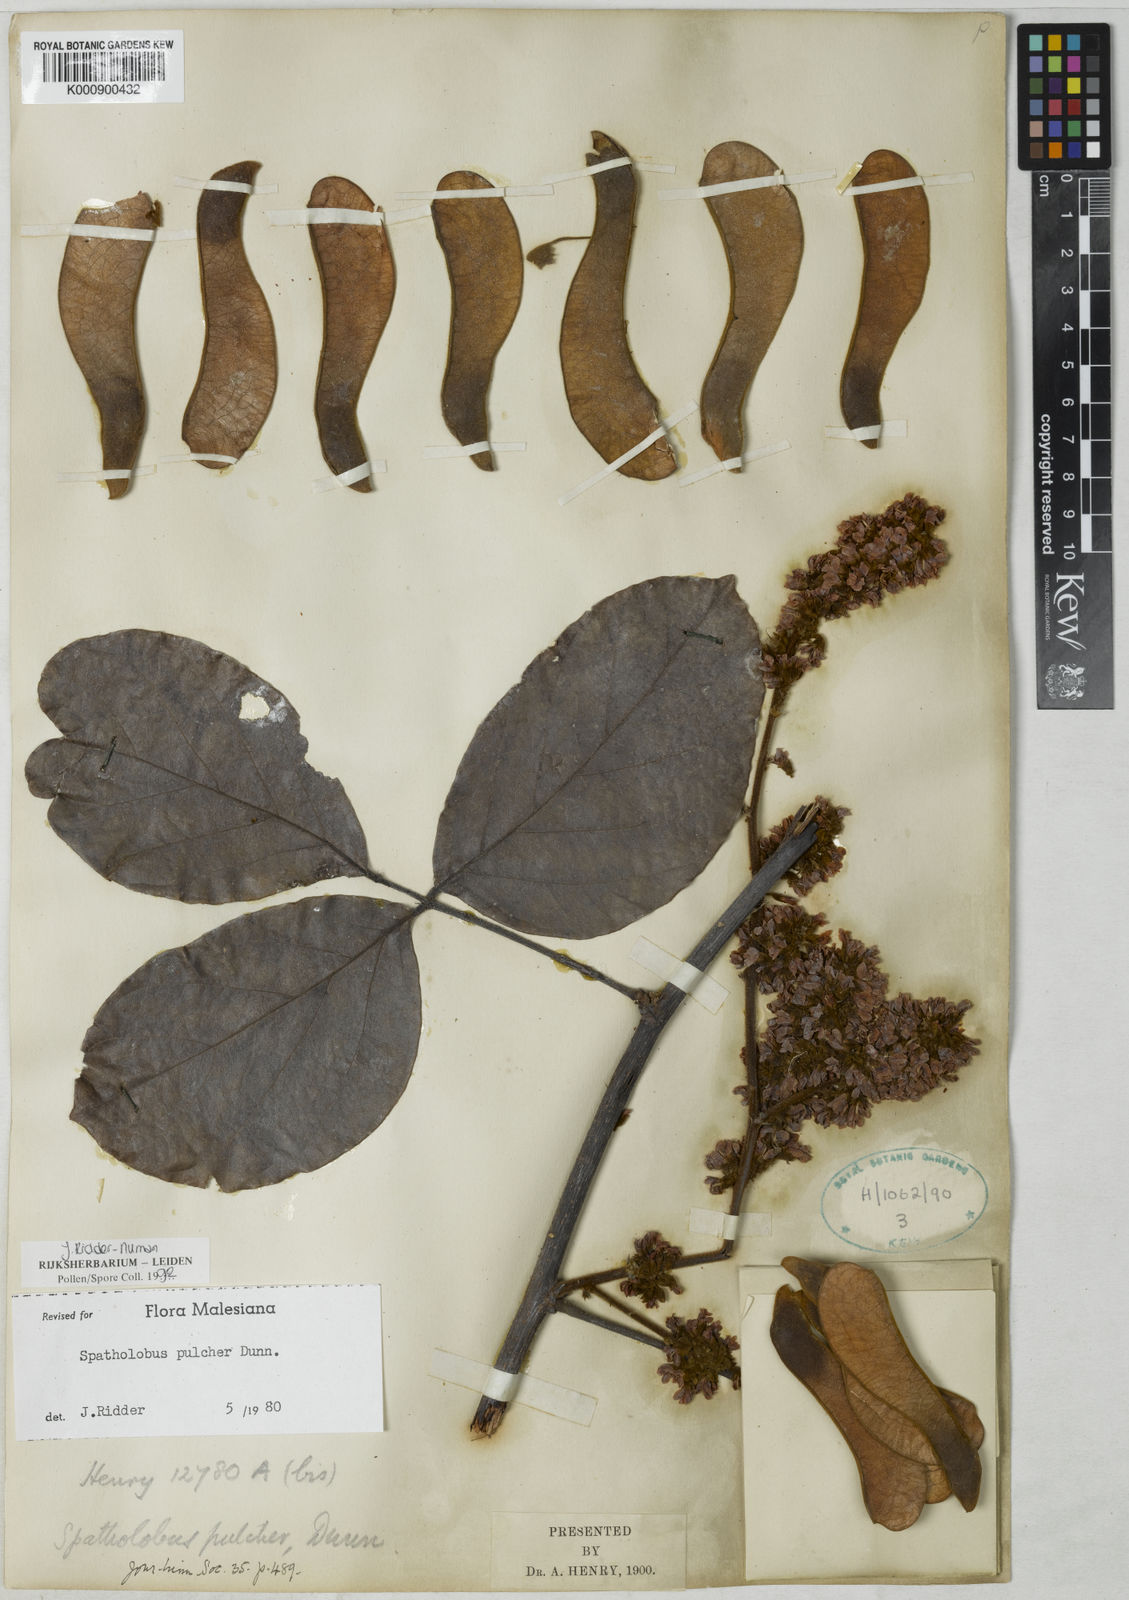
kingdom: Plantae
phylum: Tracheophyta
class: Magnoliopsida
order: Fabales
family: Fabaceae
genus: Spatholobus
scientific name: Spatholobus pulcher
